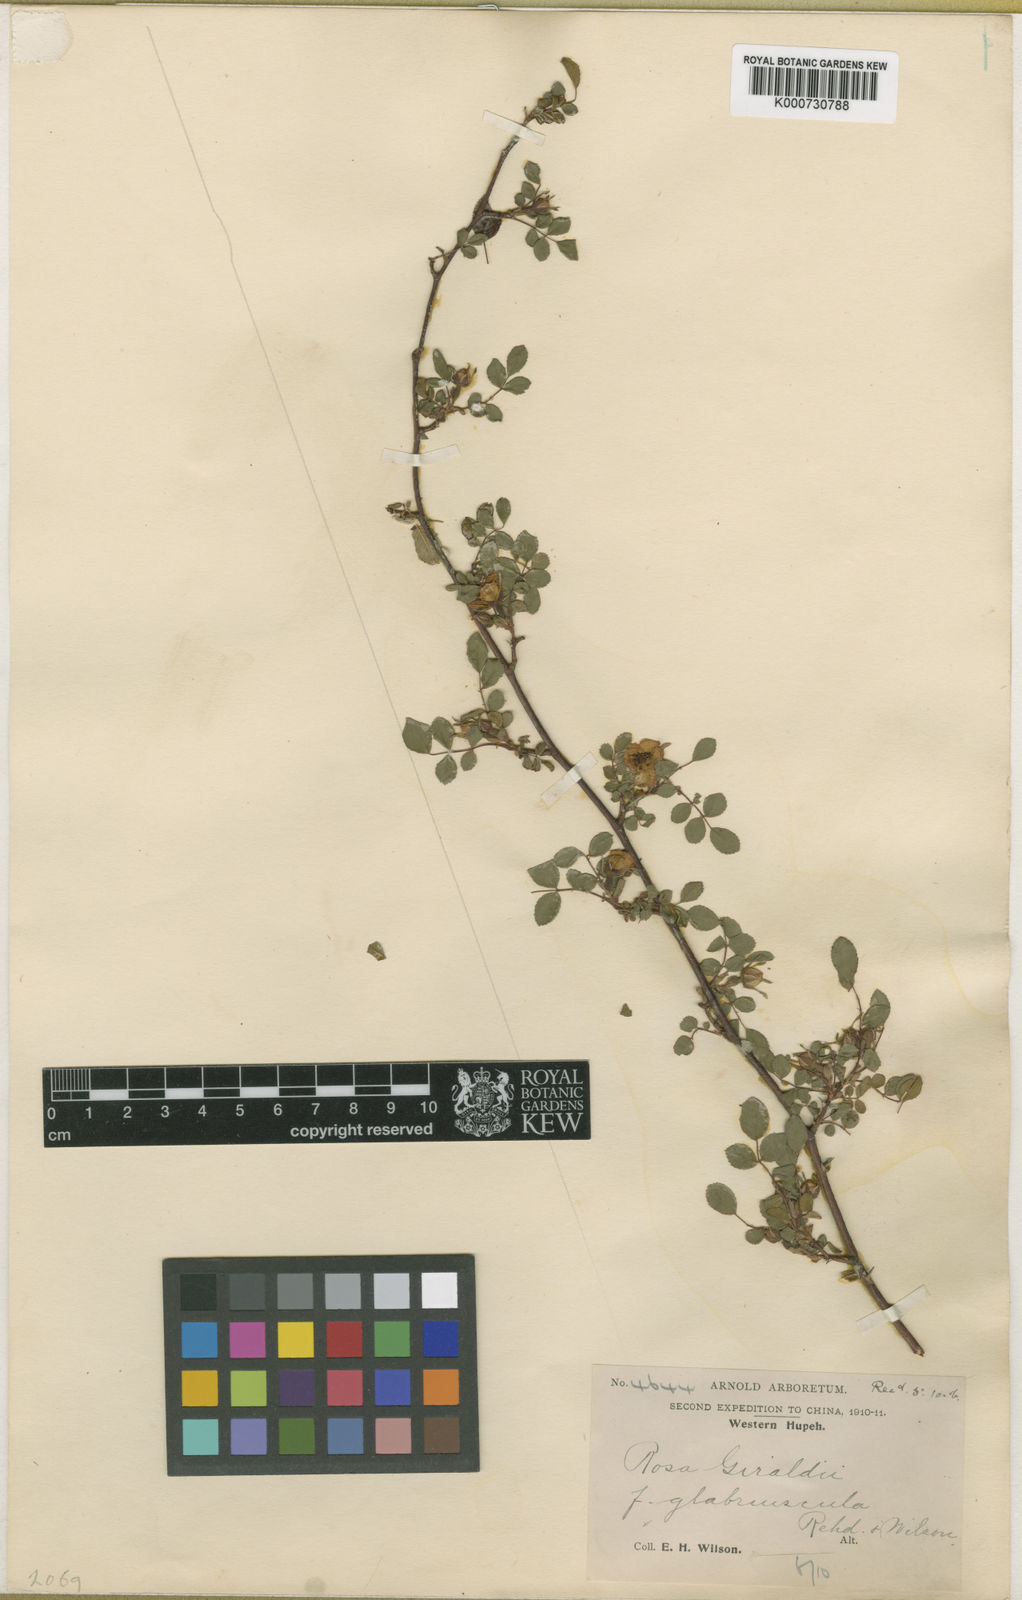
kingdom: Plantae
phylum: Tracheophyta
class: Magnoliopsida
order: Rosales
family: Rosaceae
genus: Rosa
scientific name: Rosa
